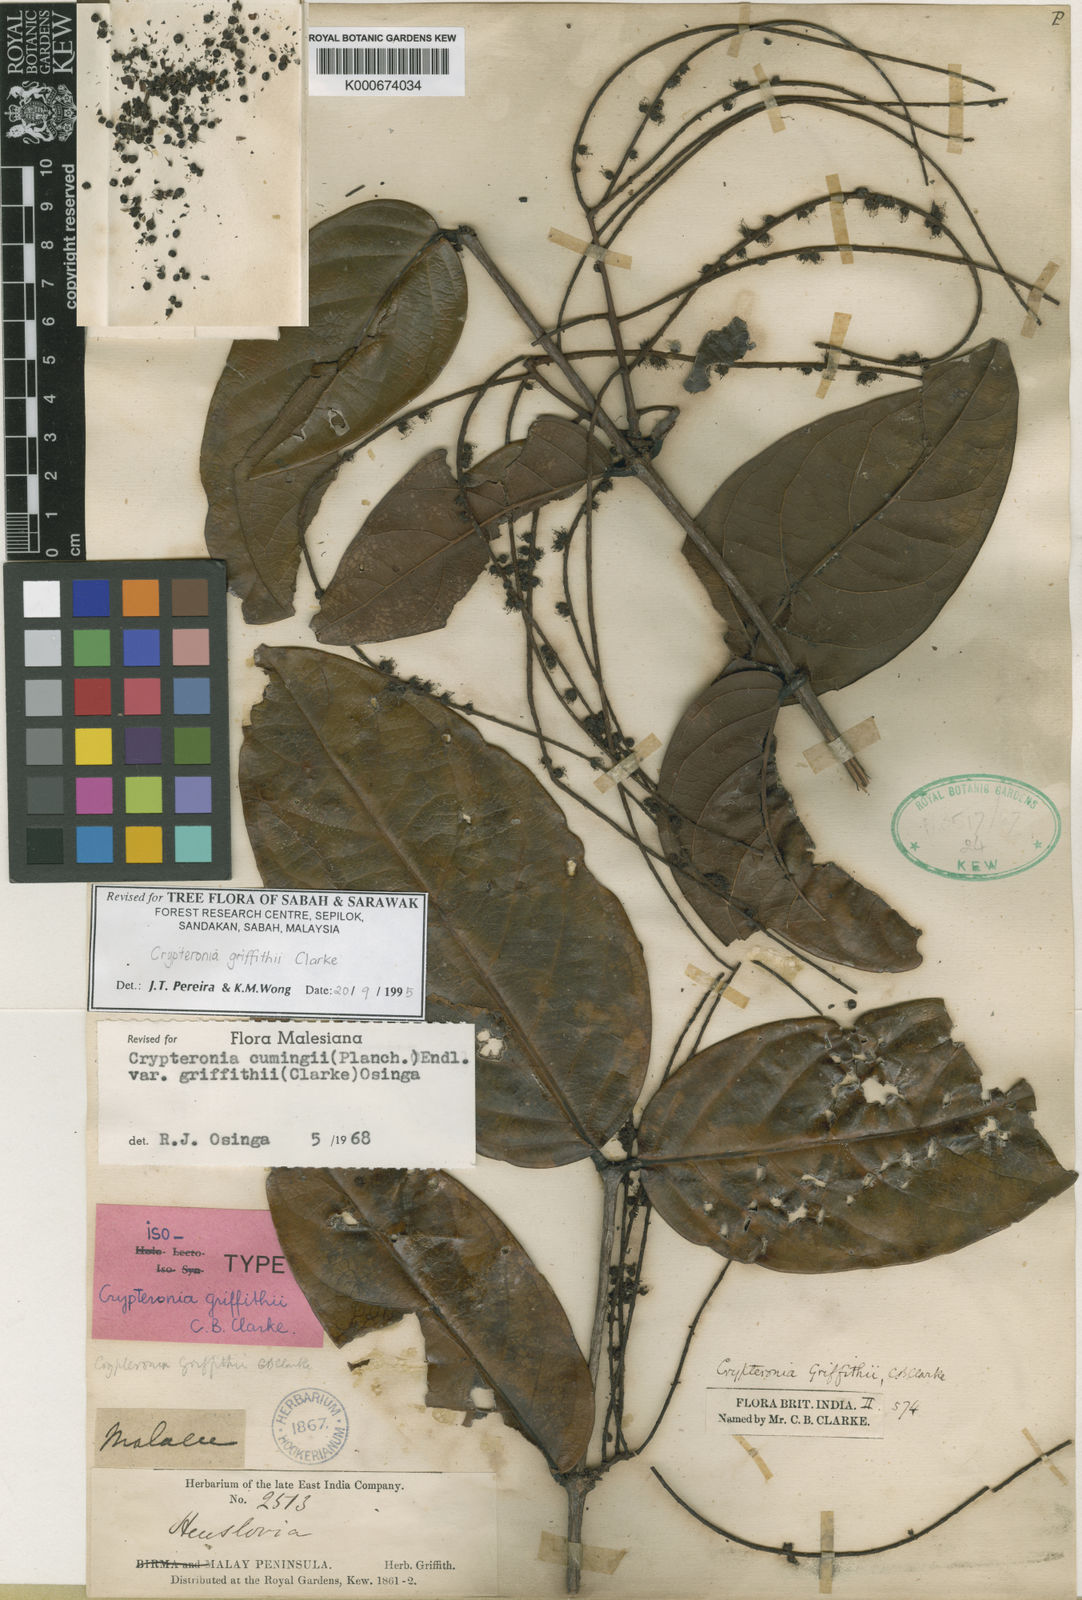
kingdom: Plantae
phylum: Tracheophyta
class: Magnoliopsida
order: Myrtales
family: Crypteroniaceae
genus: Crypteronia
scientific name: Crypteronia cumingii
